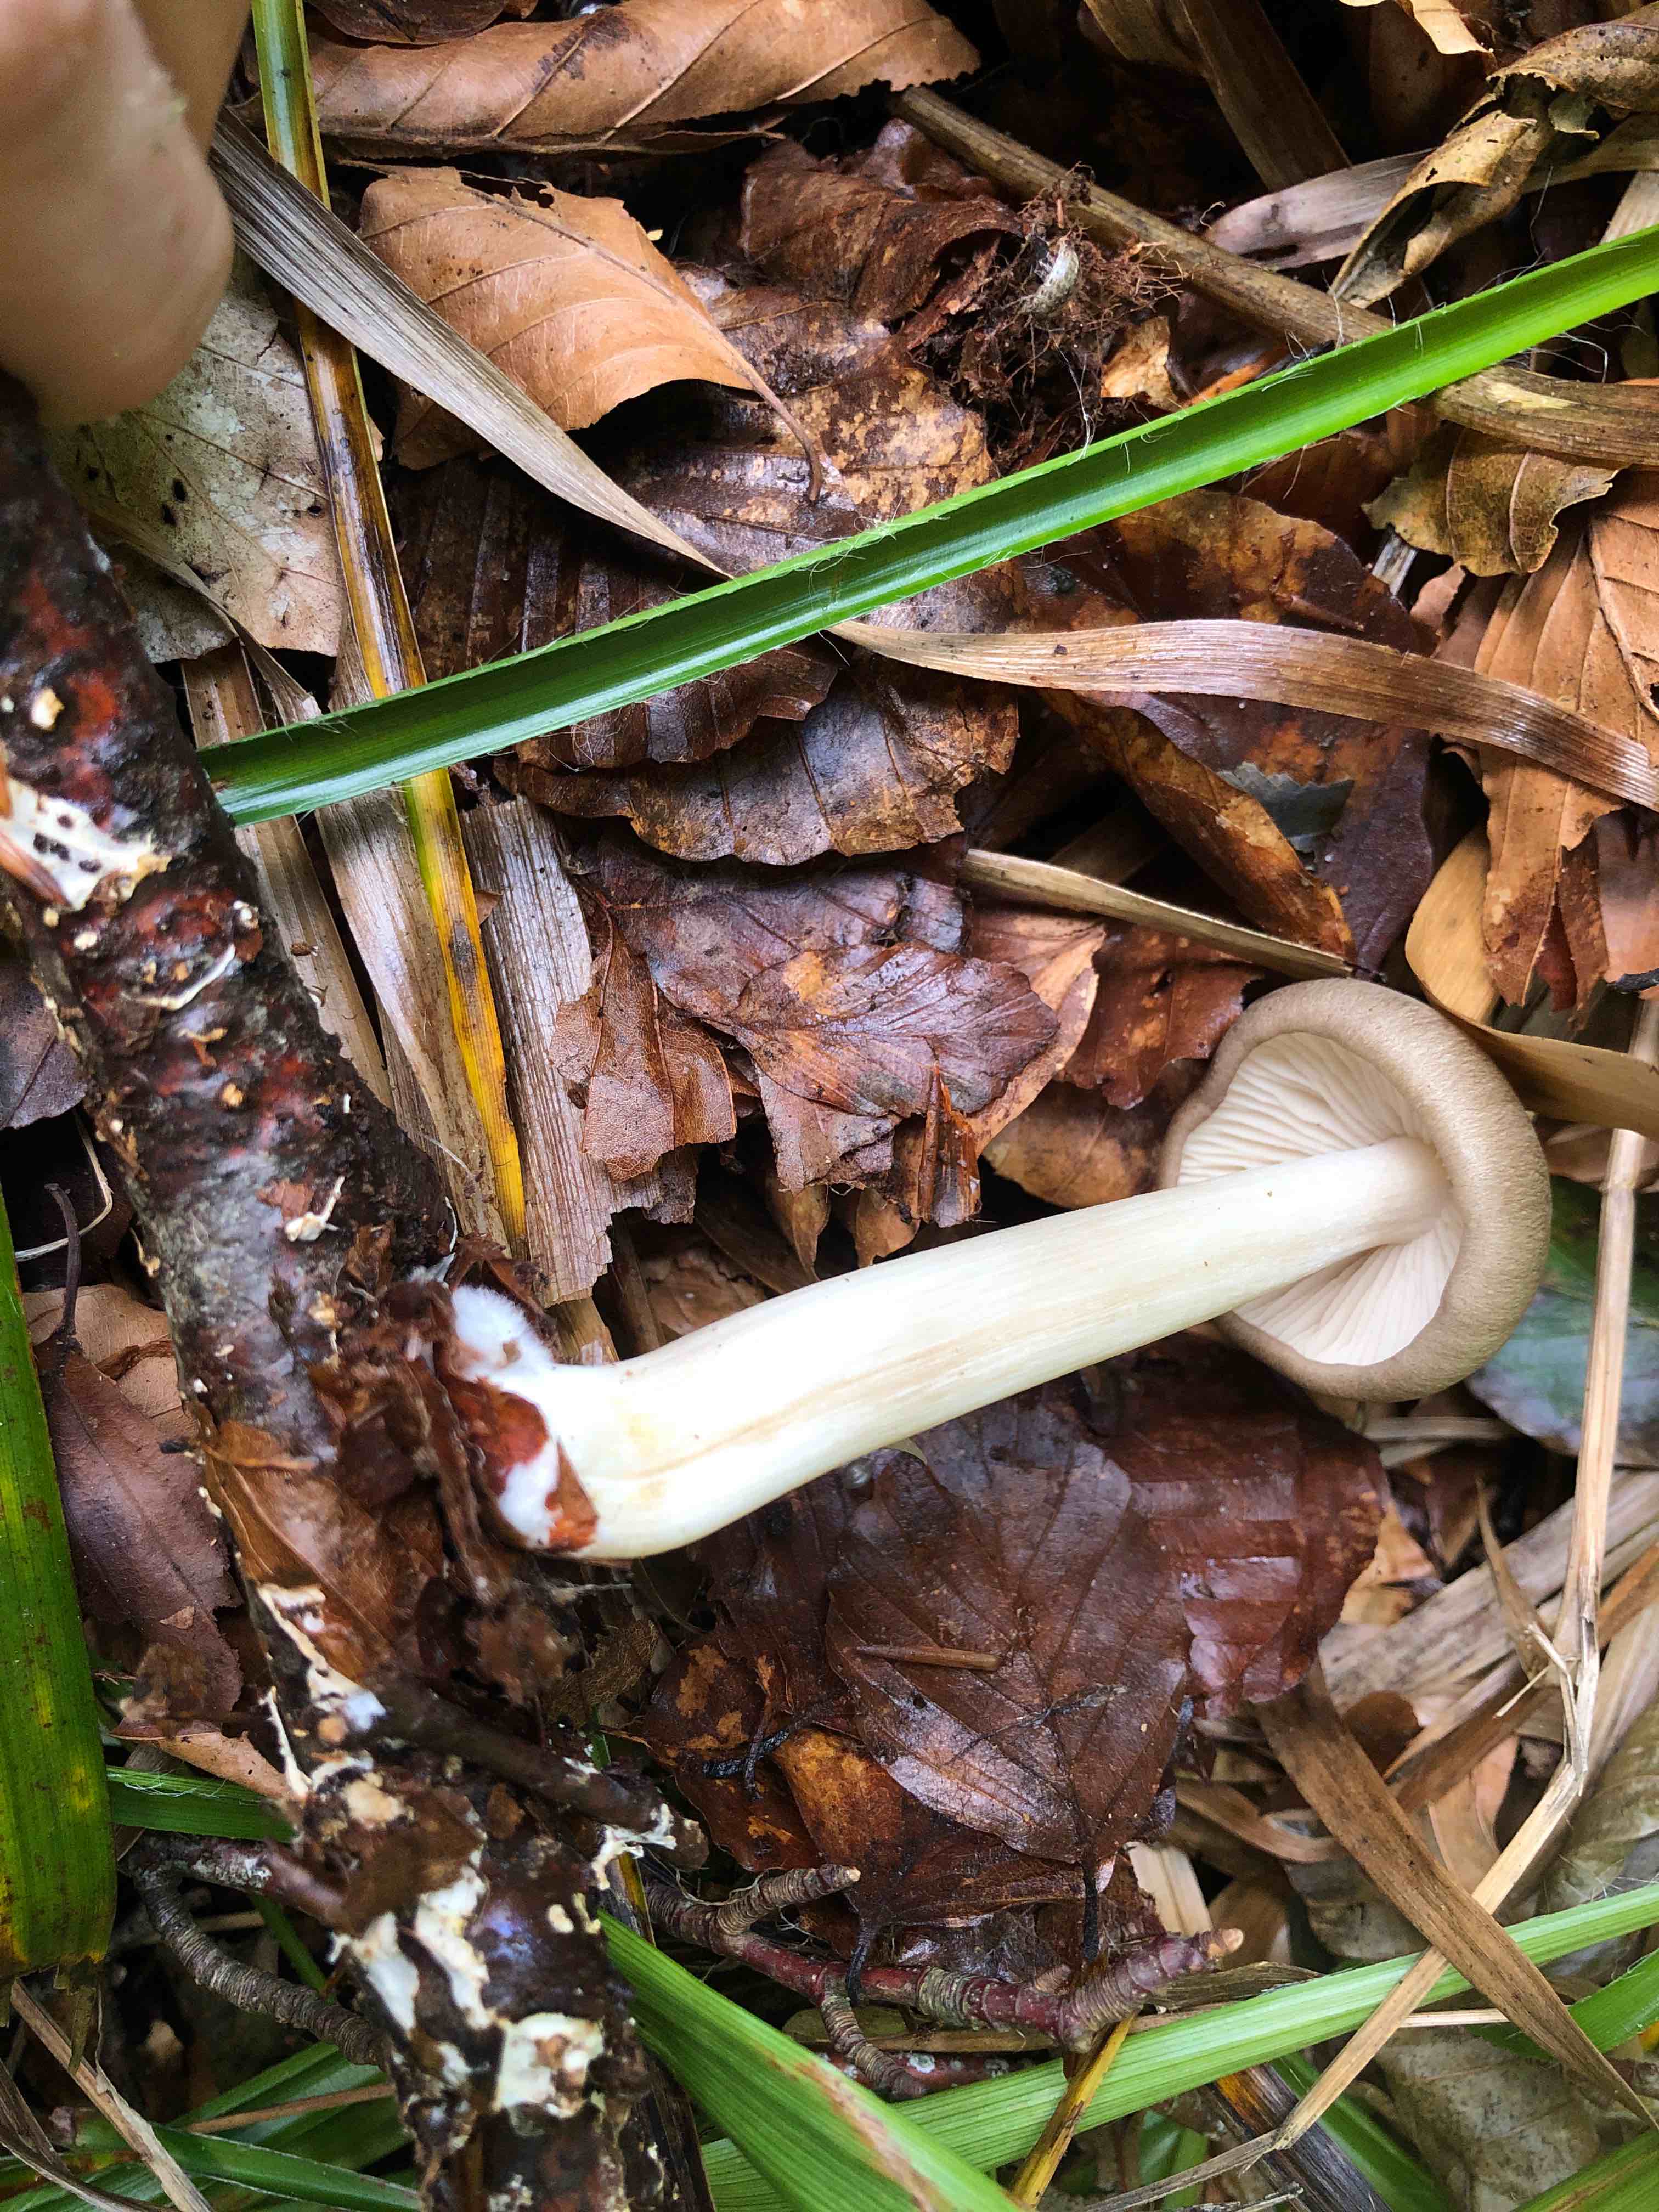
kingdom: Fungi
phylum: Basidiomycota
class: Agaricomycetes
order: Agaricales
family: Tricholomataceae
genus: Megacollybia
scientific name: Megacollybia platyphylla
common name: bredbladet væbnerhat
